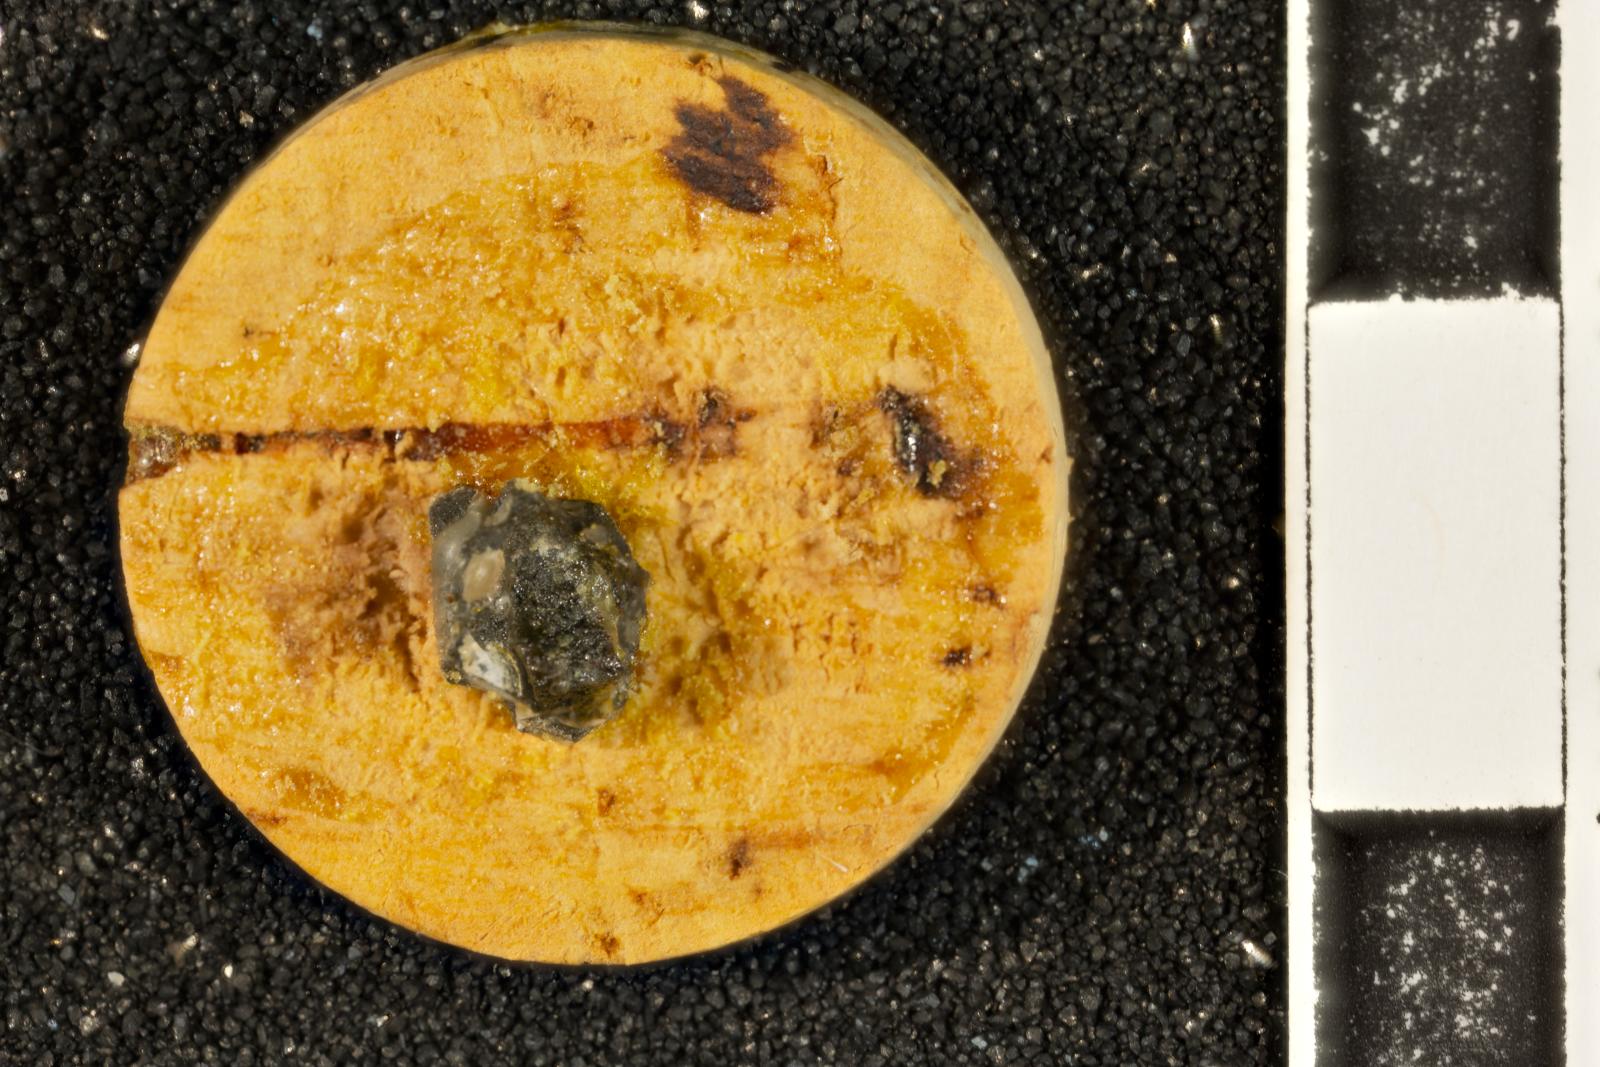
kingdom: Animalia
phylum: Mollusca
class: Gastropoda
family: Pseudomelaniidae
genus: Liocium
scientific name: Liocium punctatum
